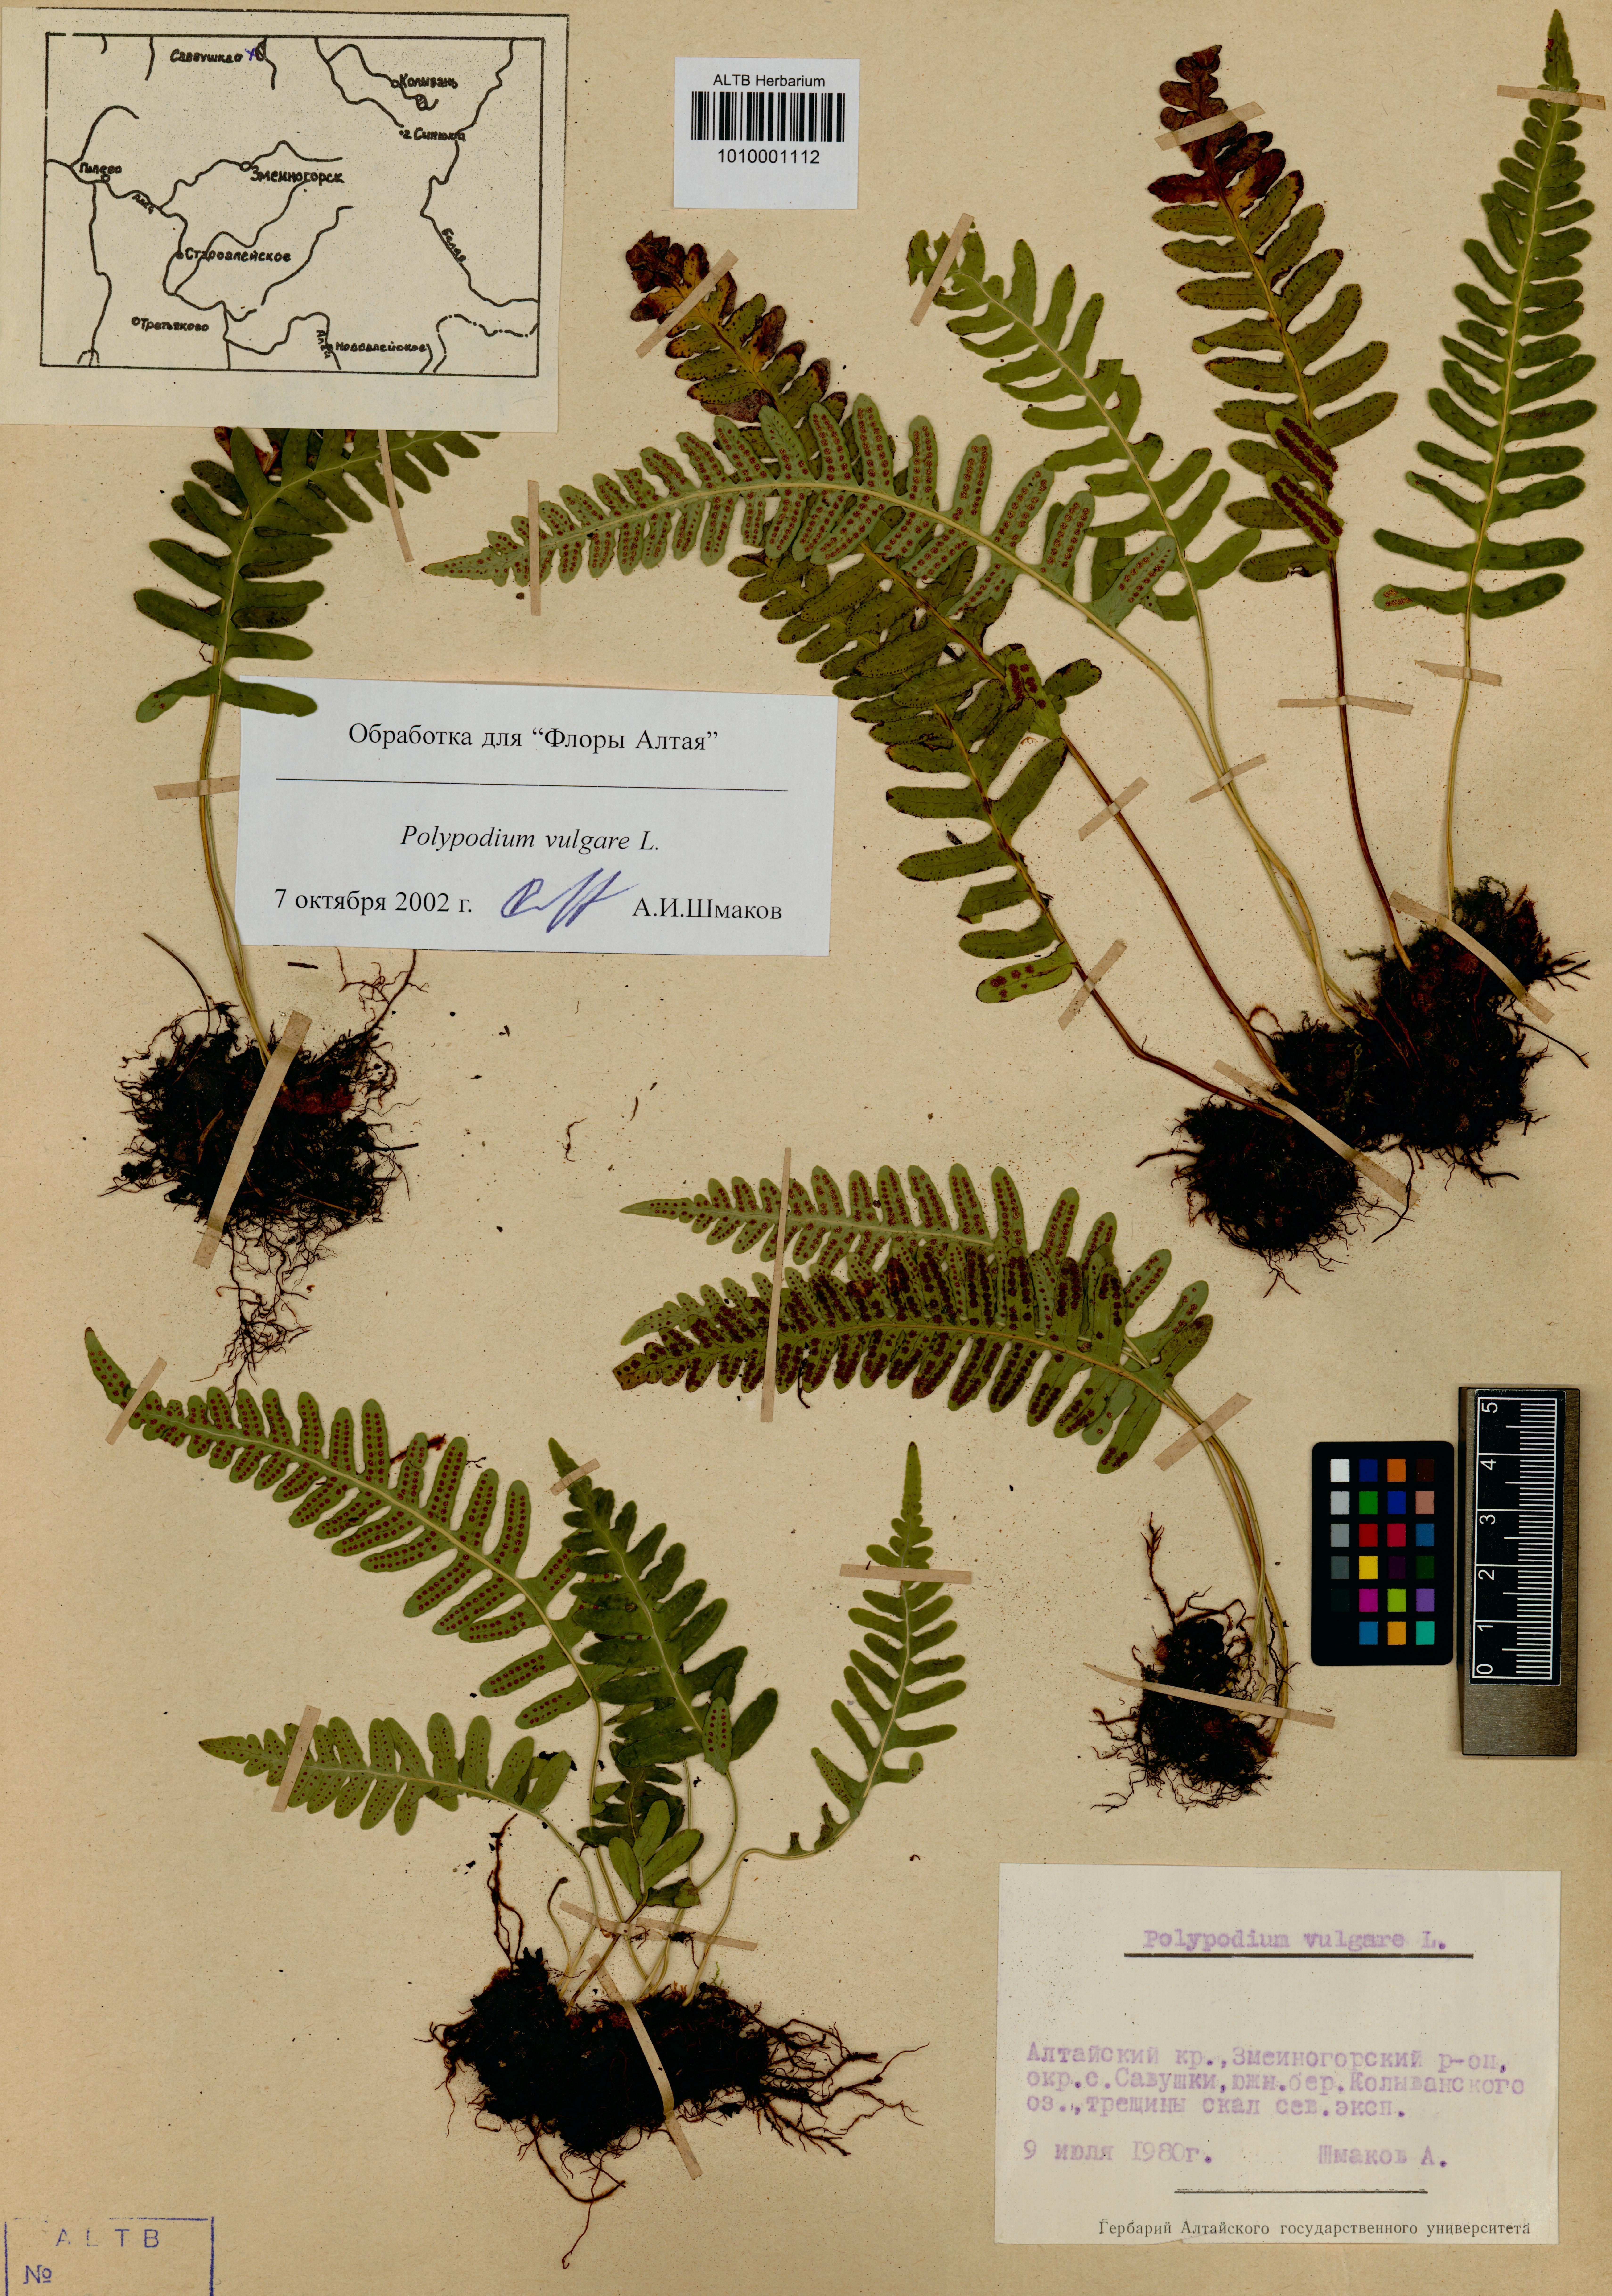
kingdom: Plantae
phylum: Tracheophyta
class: Polypodiopsida
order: Polypodiales
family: Polypodiaceae
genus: Polypodium
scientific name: Polypodium vulgare
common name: Common polypody
